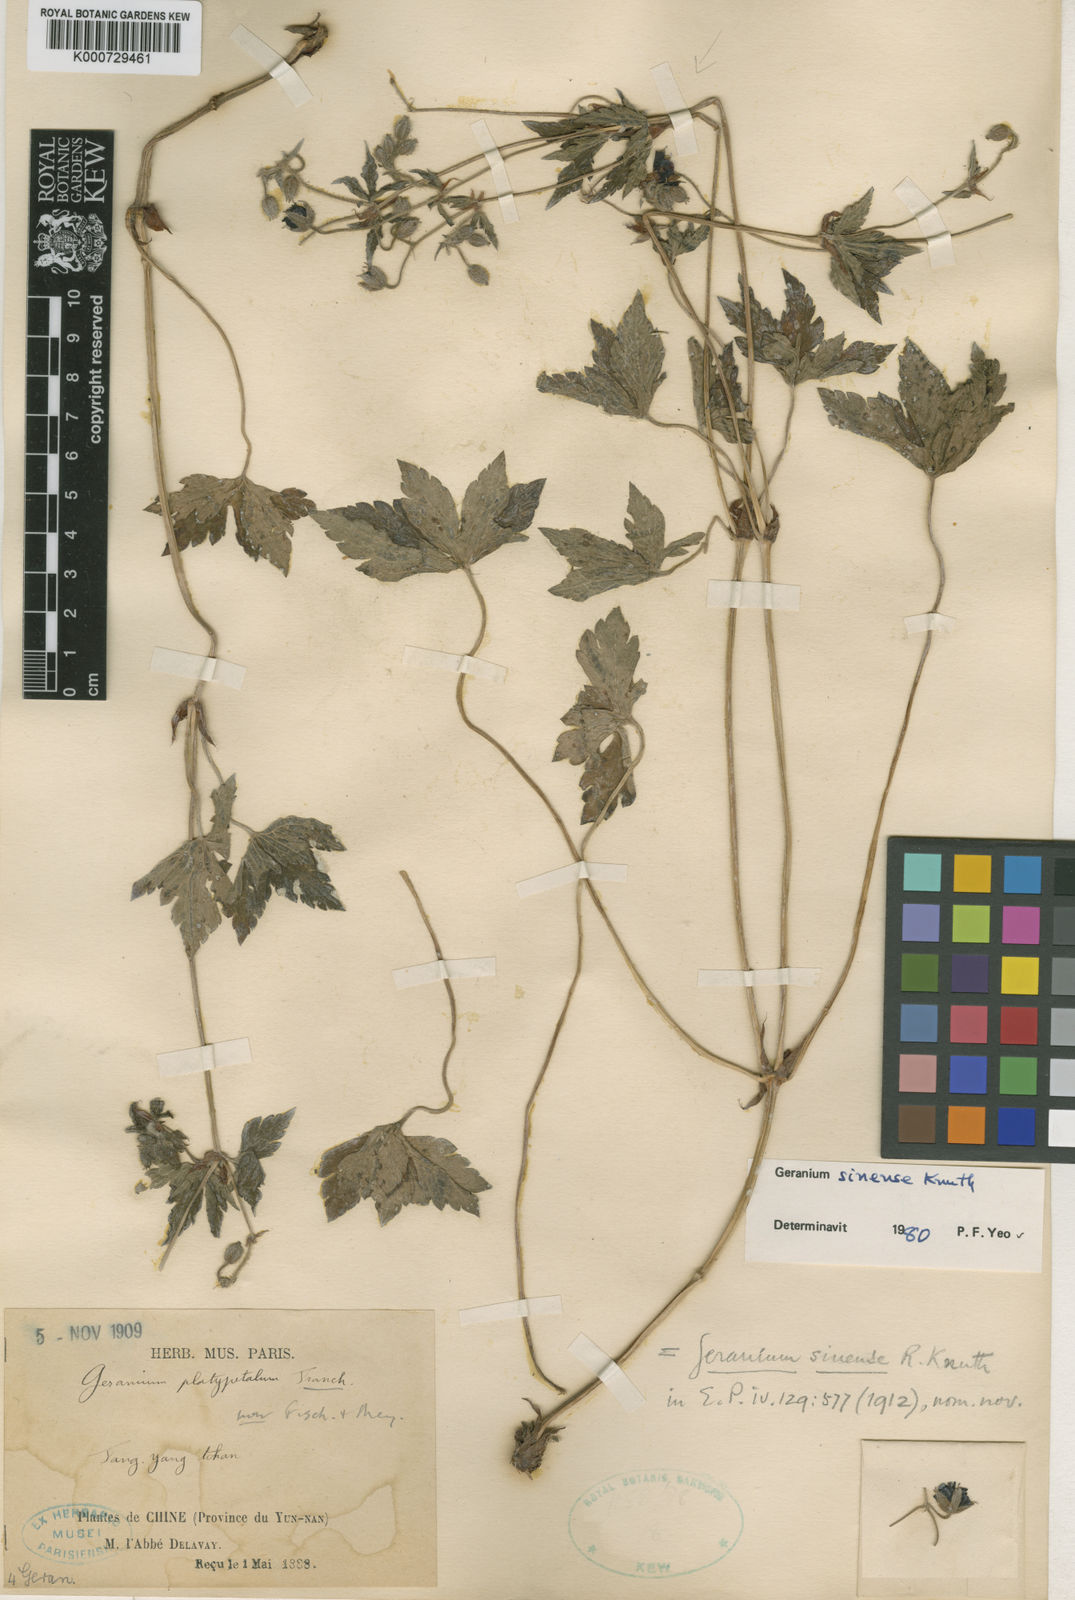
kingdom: Plantae
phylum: Tracheophyta
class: Magnoliopsida
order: Geraniales
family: Geraniaceae
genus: Geranium
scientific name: Geranium sinense
